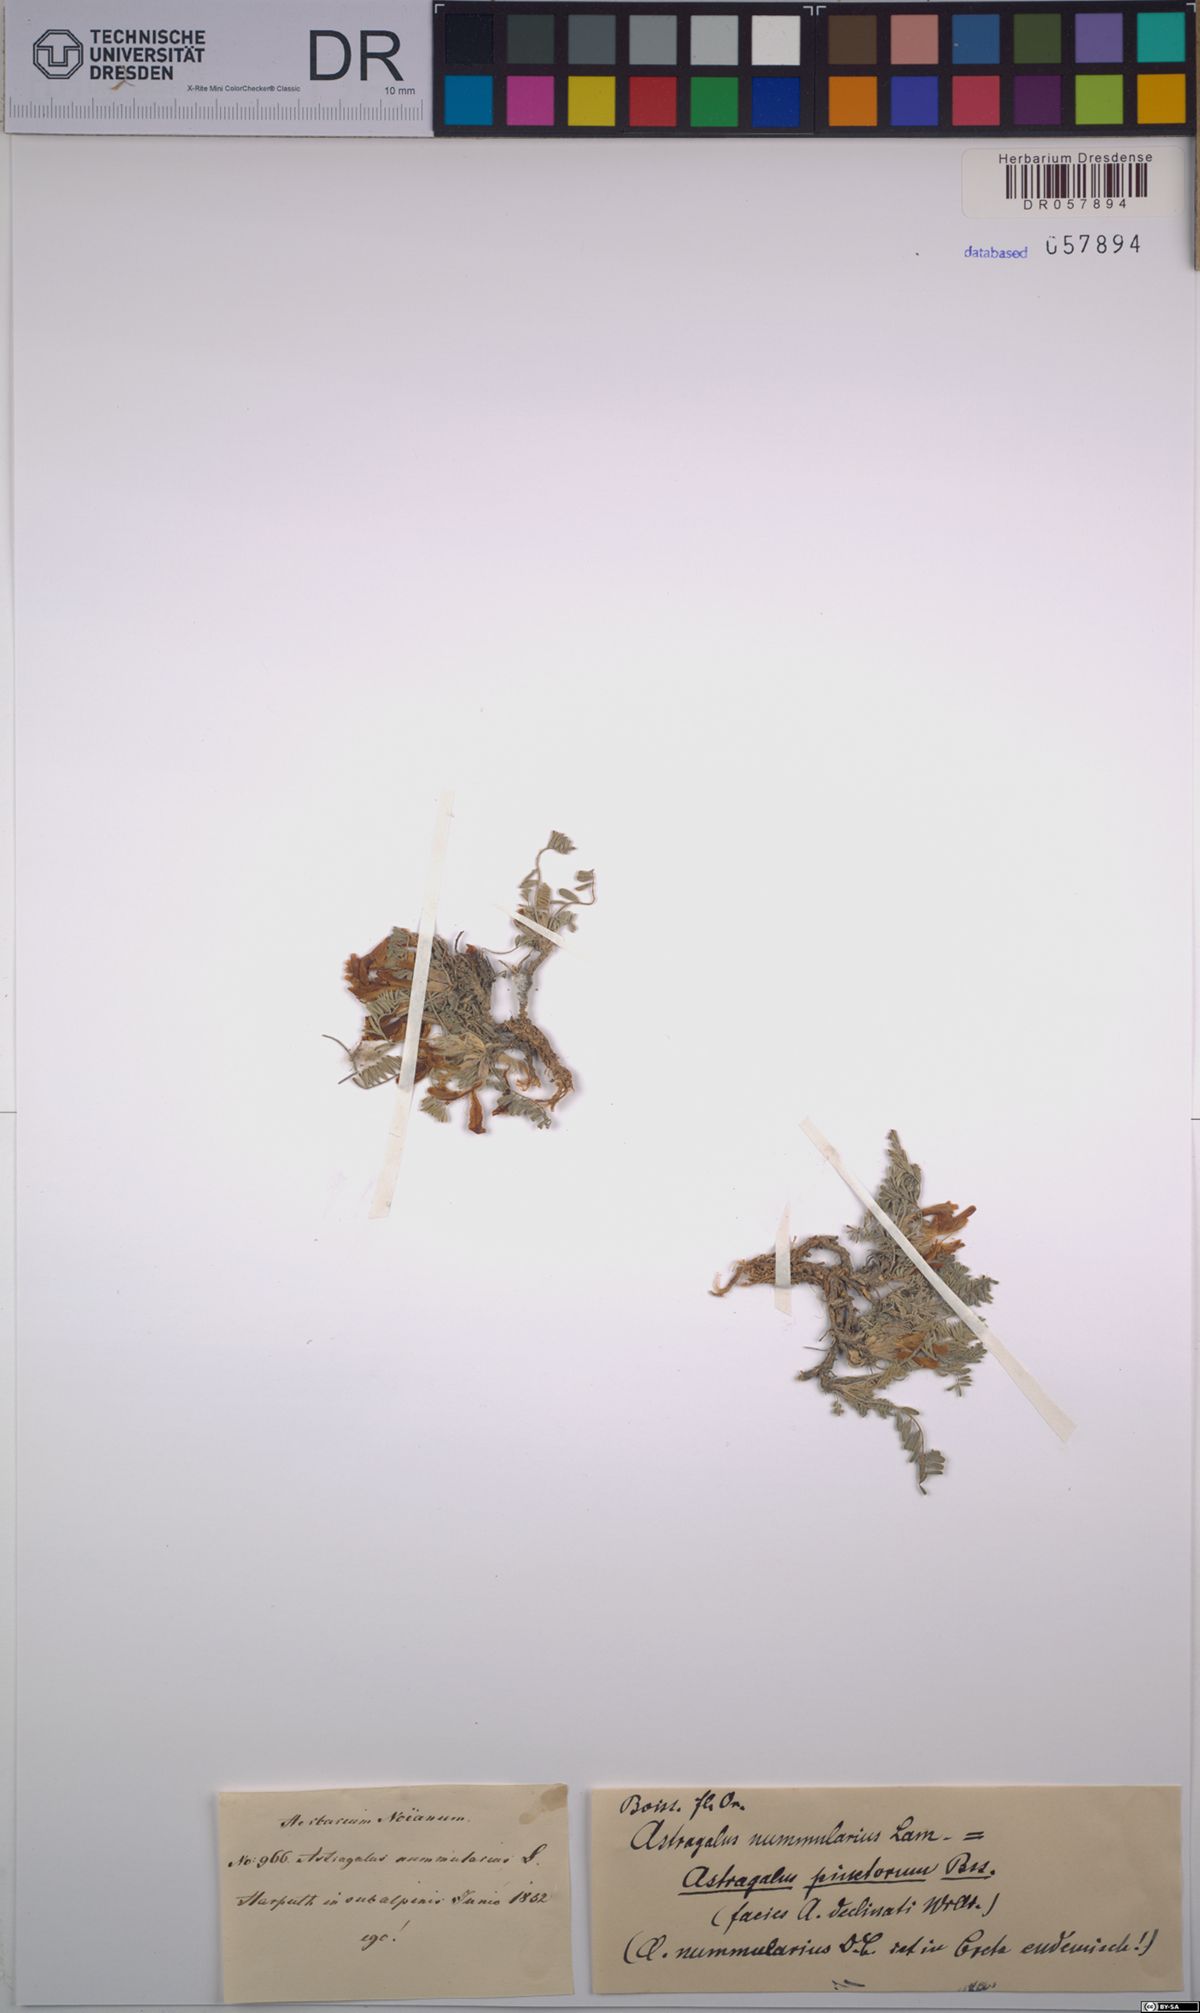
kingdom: Plantae
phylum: Tracheophyta
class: Magnoliopsida
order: Fabales
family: Fabaceae
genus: Astragalus
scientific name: Astragalus nummularius
